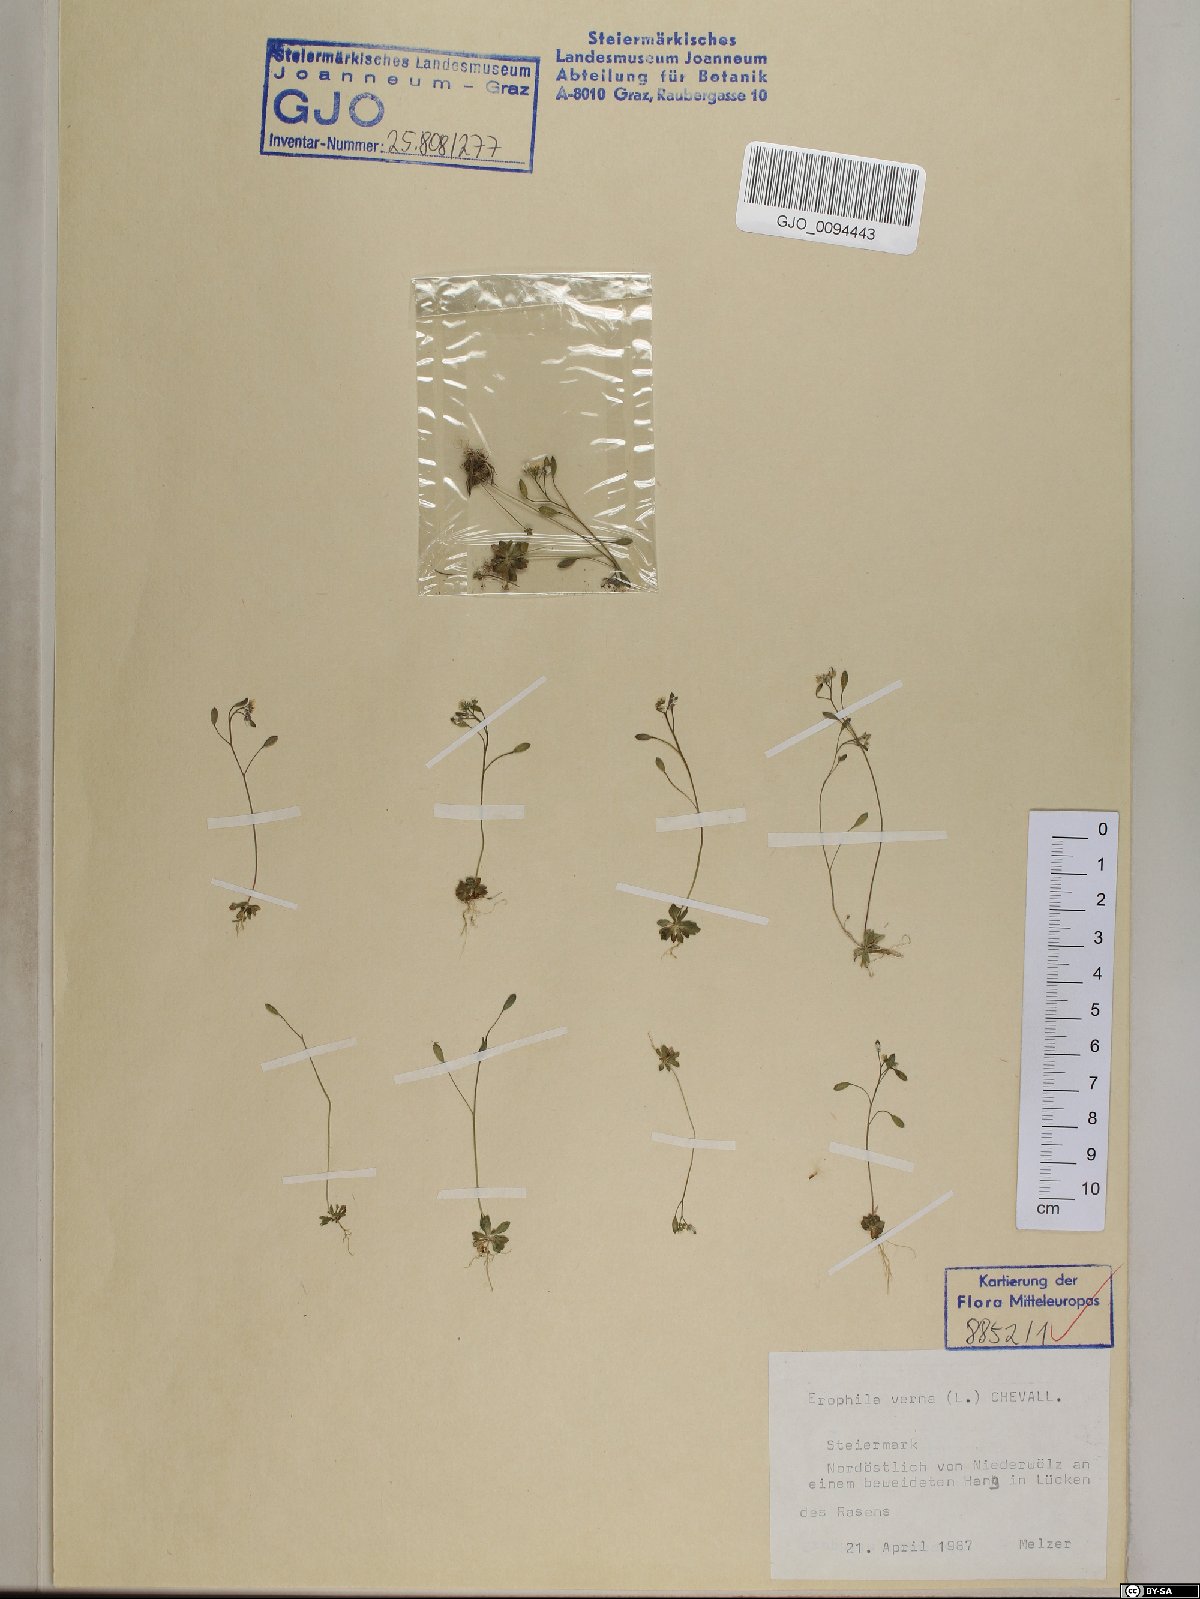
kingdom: Plantae
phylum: Tracheophyta
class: Magnoliopsida
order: Brassicales
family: Brassicaceae
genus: Draba
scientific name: Draba verna
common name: Spring draba
